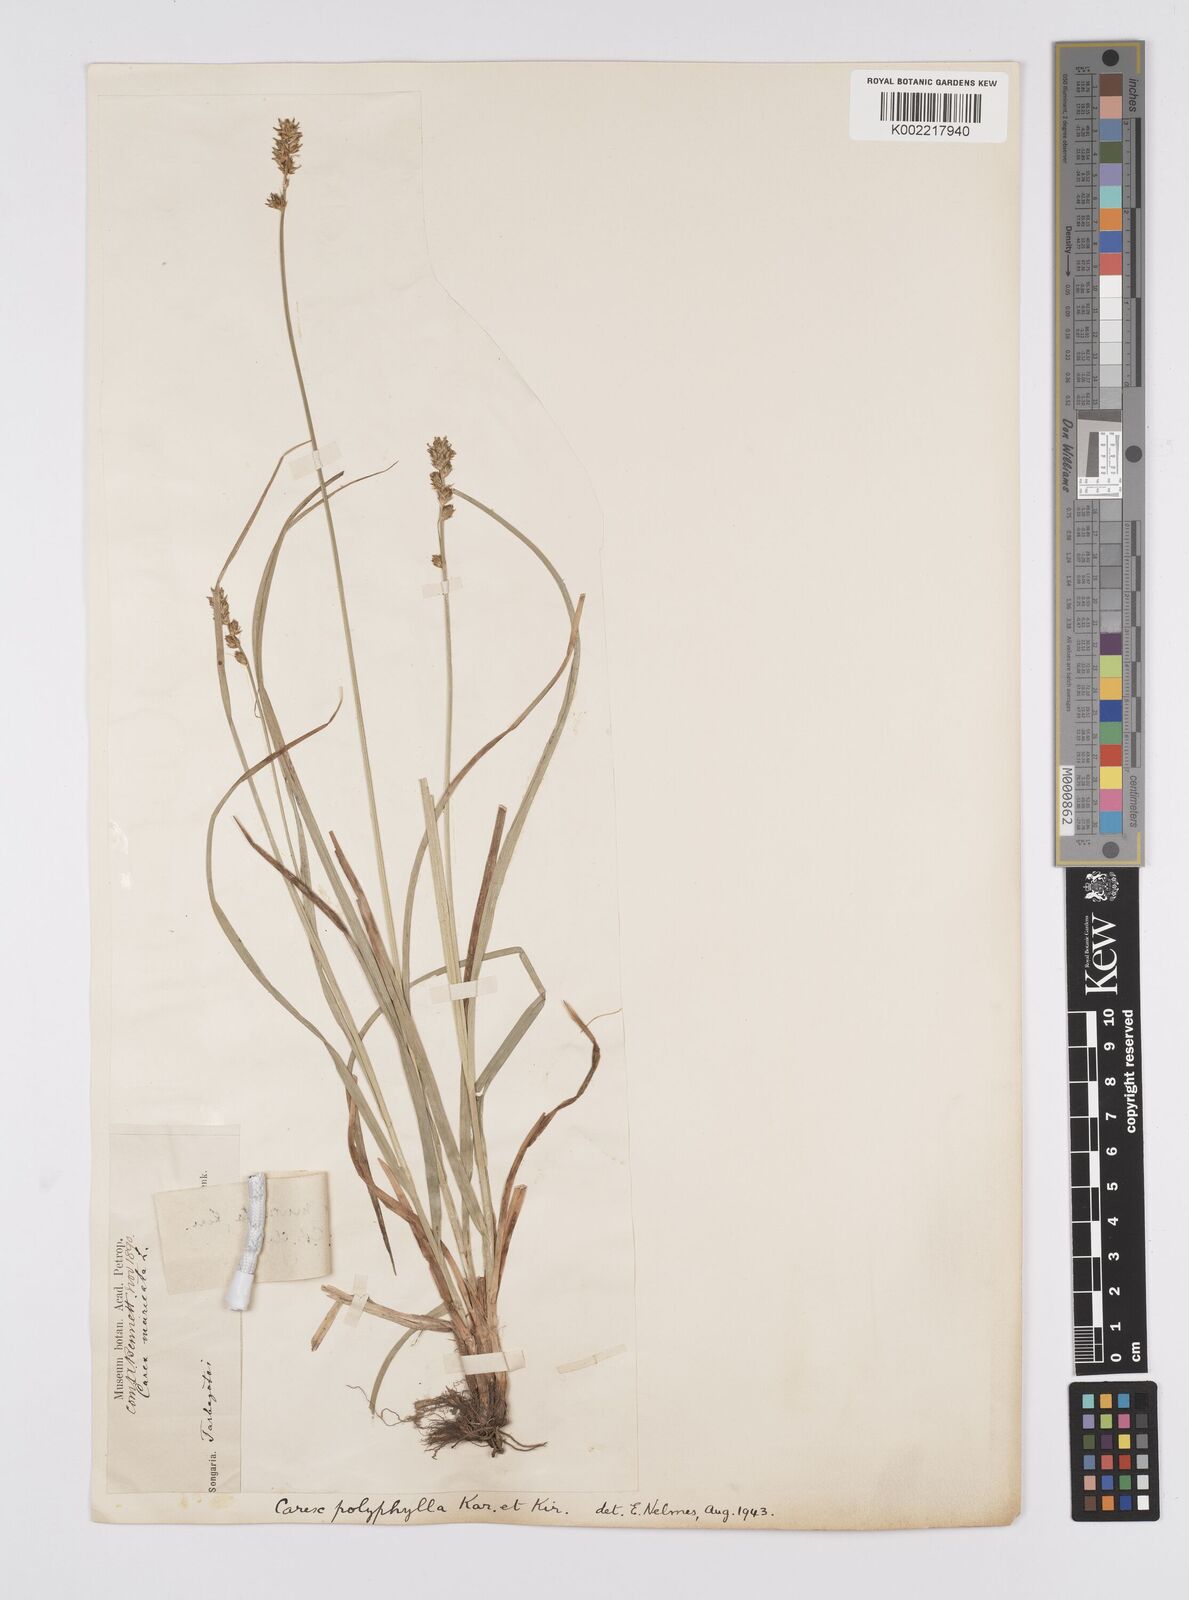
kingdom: Plantae
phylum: Tracheophyta
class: Liliopsida
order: Poales
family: Cyperaceae
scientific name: Cyperaceae
